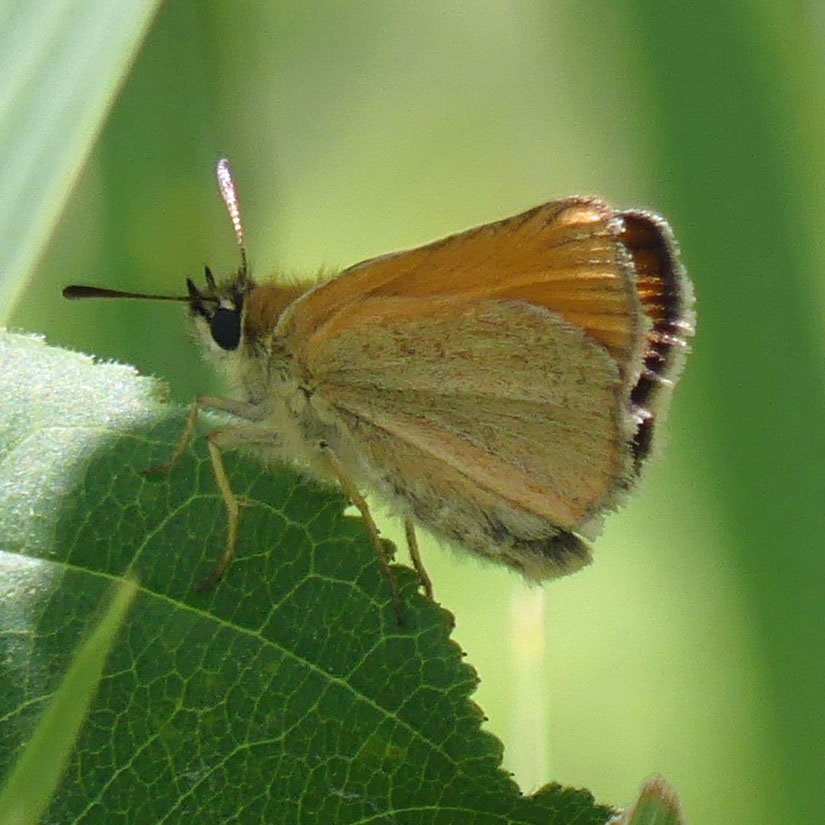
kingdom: Animalia
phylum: Arthropoda
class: Insecta
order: Lepidoptera
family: Hesperiidae
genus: Thymelicus
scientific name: Thymelicus lineola
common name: European Skipper
